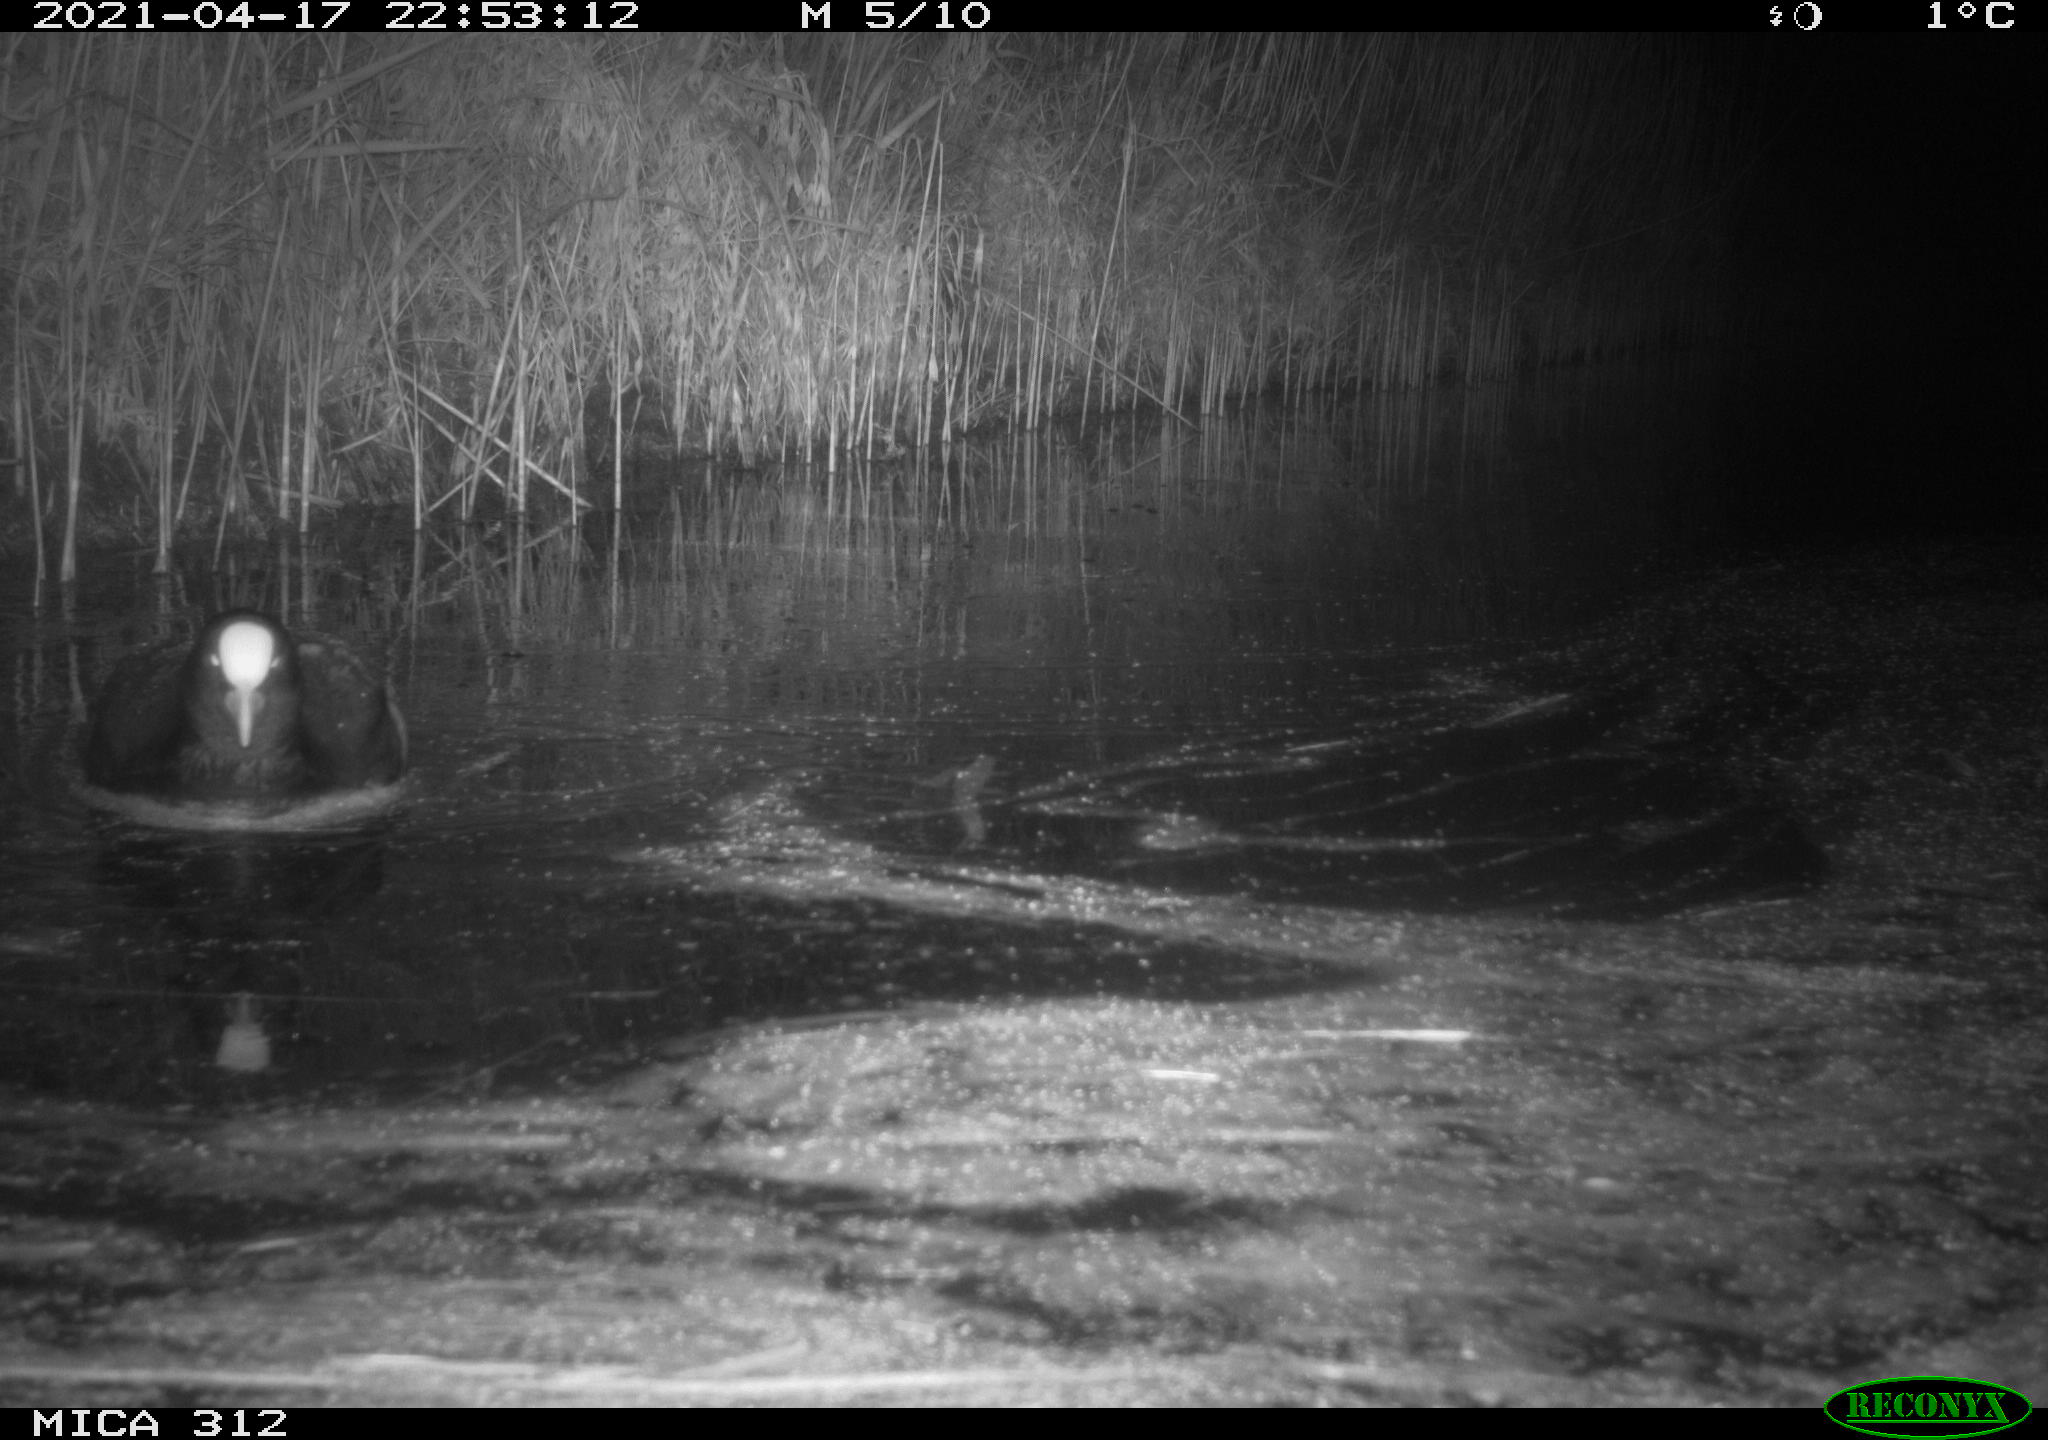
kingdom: Animalia
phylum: Chordata
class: Aves
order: Gruiformes
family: Rallidae
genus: Fulica
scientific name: Fulica atra
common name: Eurasian coot
